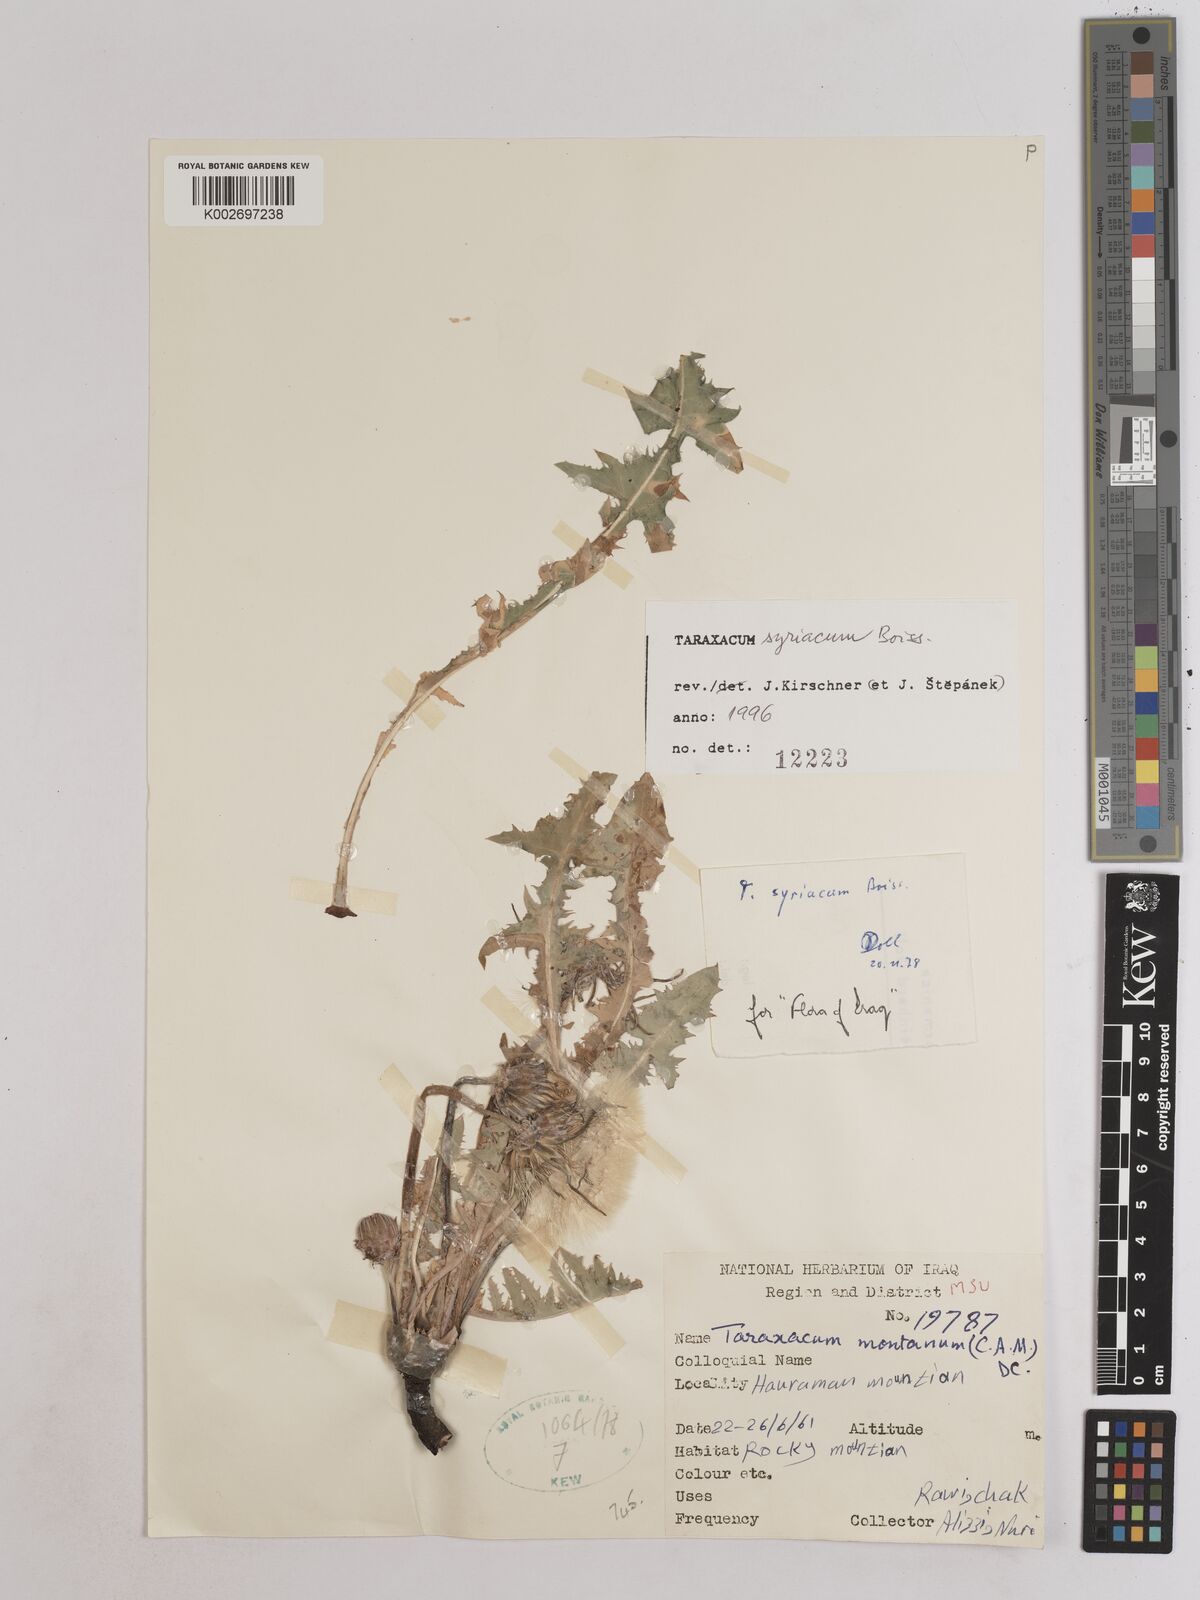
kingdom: Plantae
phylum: Tracheophyta
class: Magnoliopsida
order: Asterales
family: Asteraceae
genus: Taraxacum
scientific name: Taraxacum syriacum
